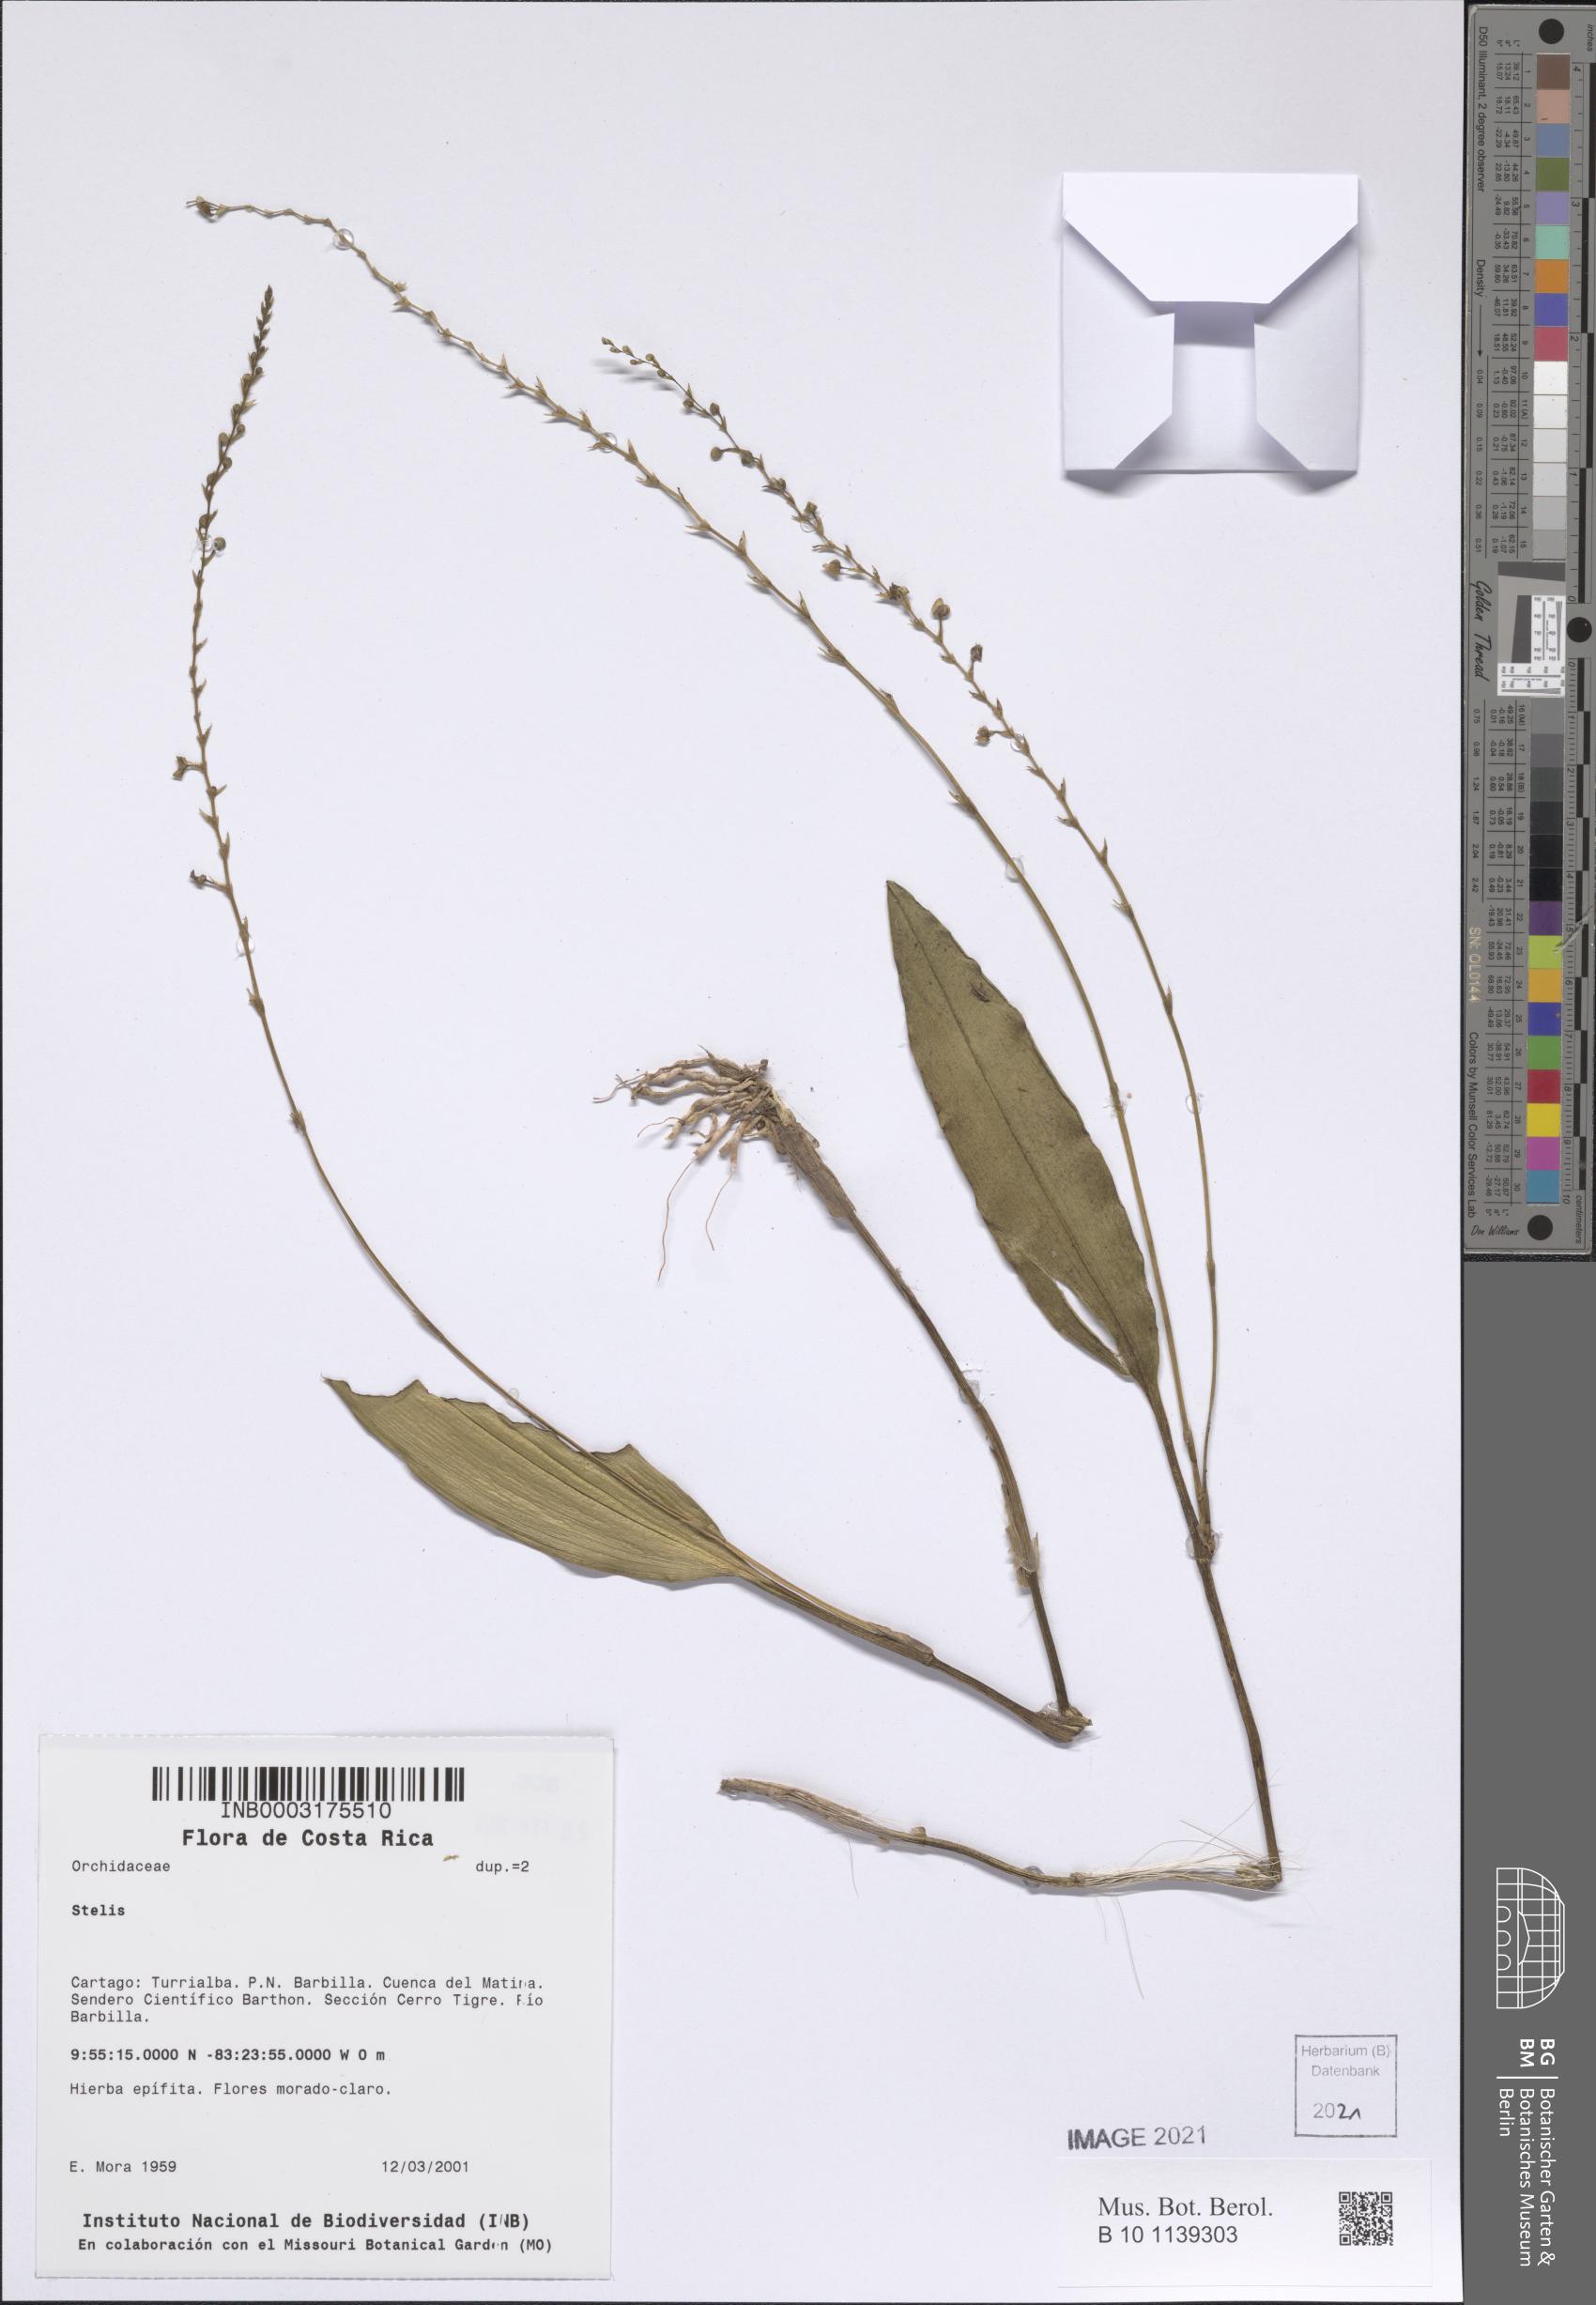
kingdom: Plantae
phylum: Tracheophyta
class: Liliopsida
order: Asparagales
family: Orchidaceae
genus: Stelis
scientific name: Stelis
